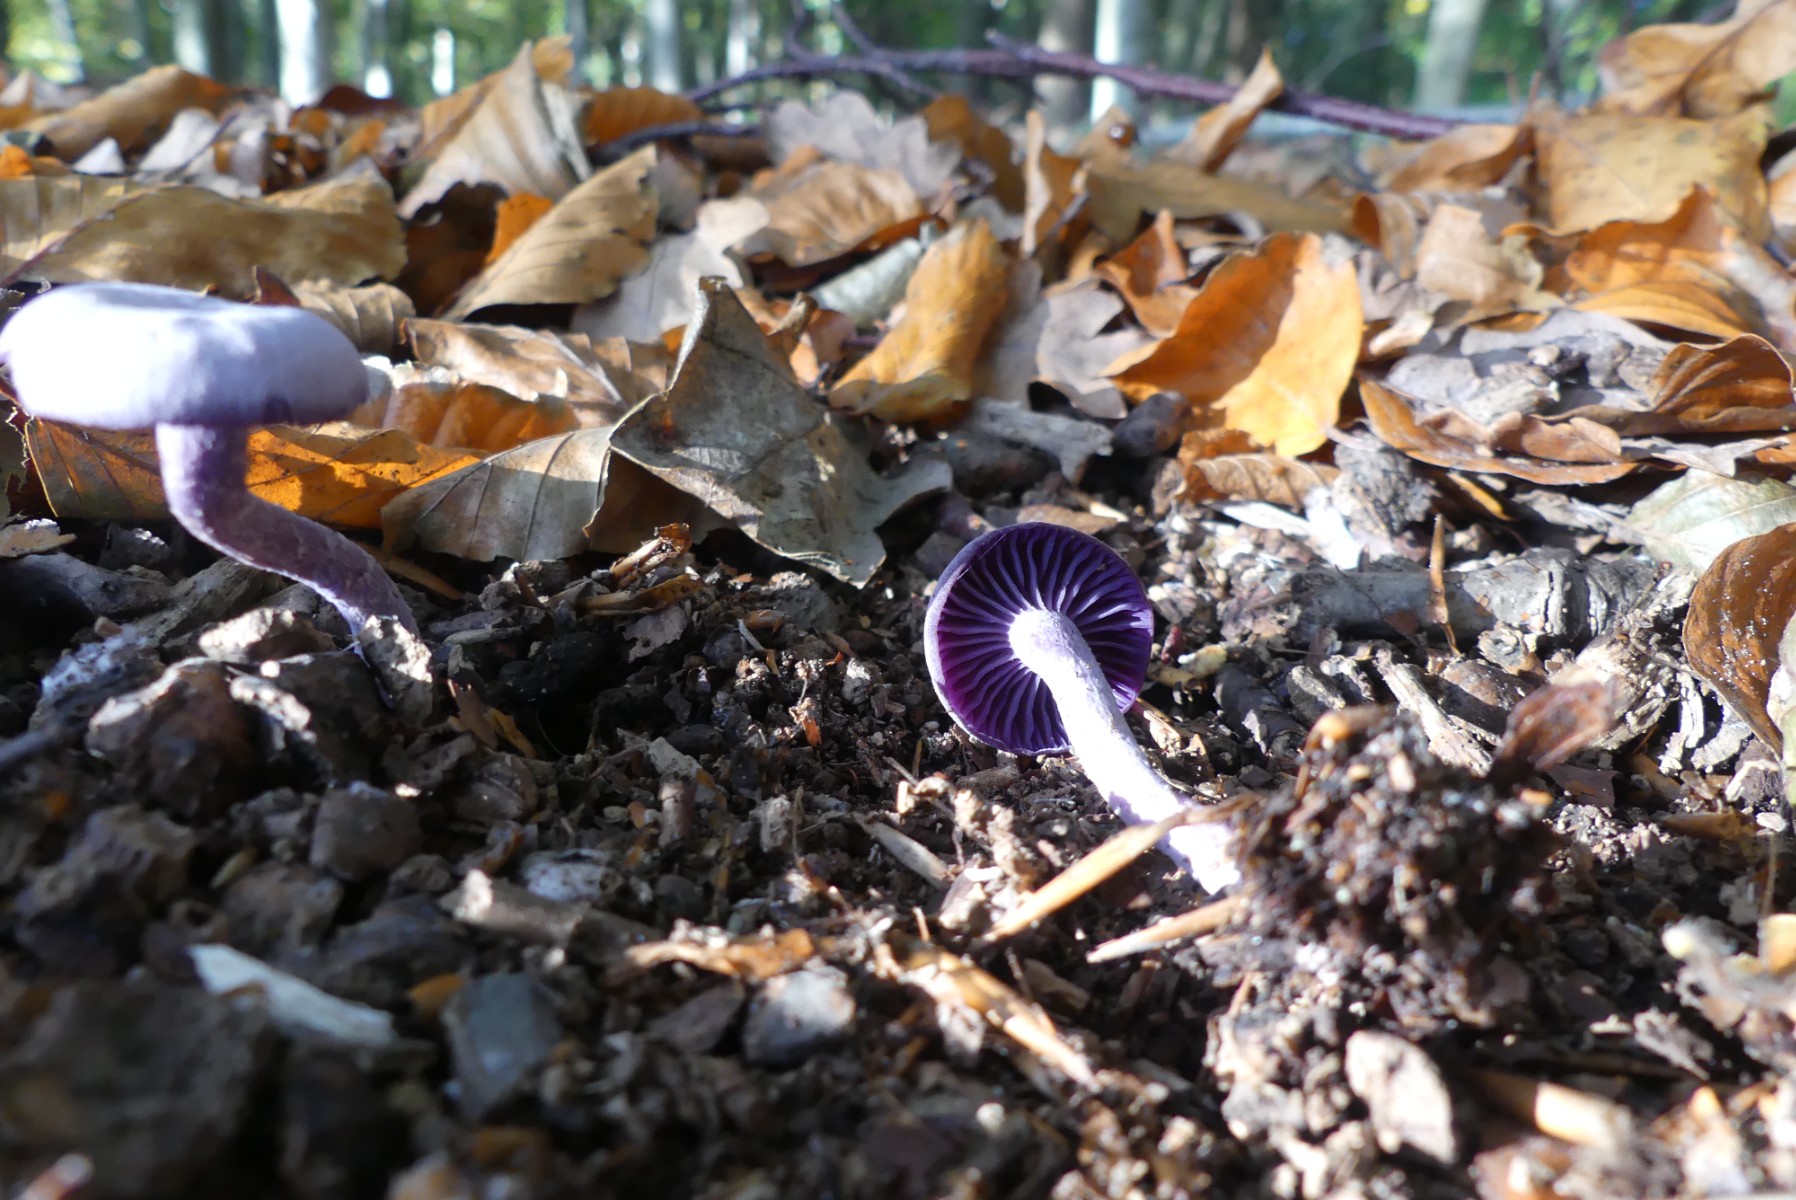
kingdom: Fungi
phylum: Basidiomycota
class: Agaricomycetes
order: Agaricales
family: Hydnangiaceae
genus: Laccaria
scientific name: Laccaria amethystina
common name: violet ametysthat
